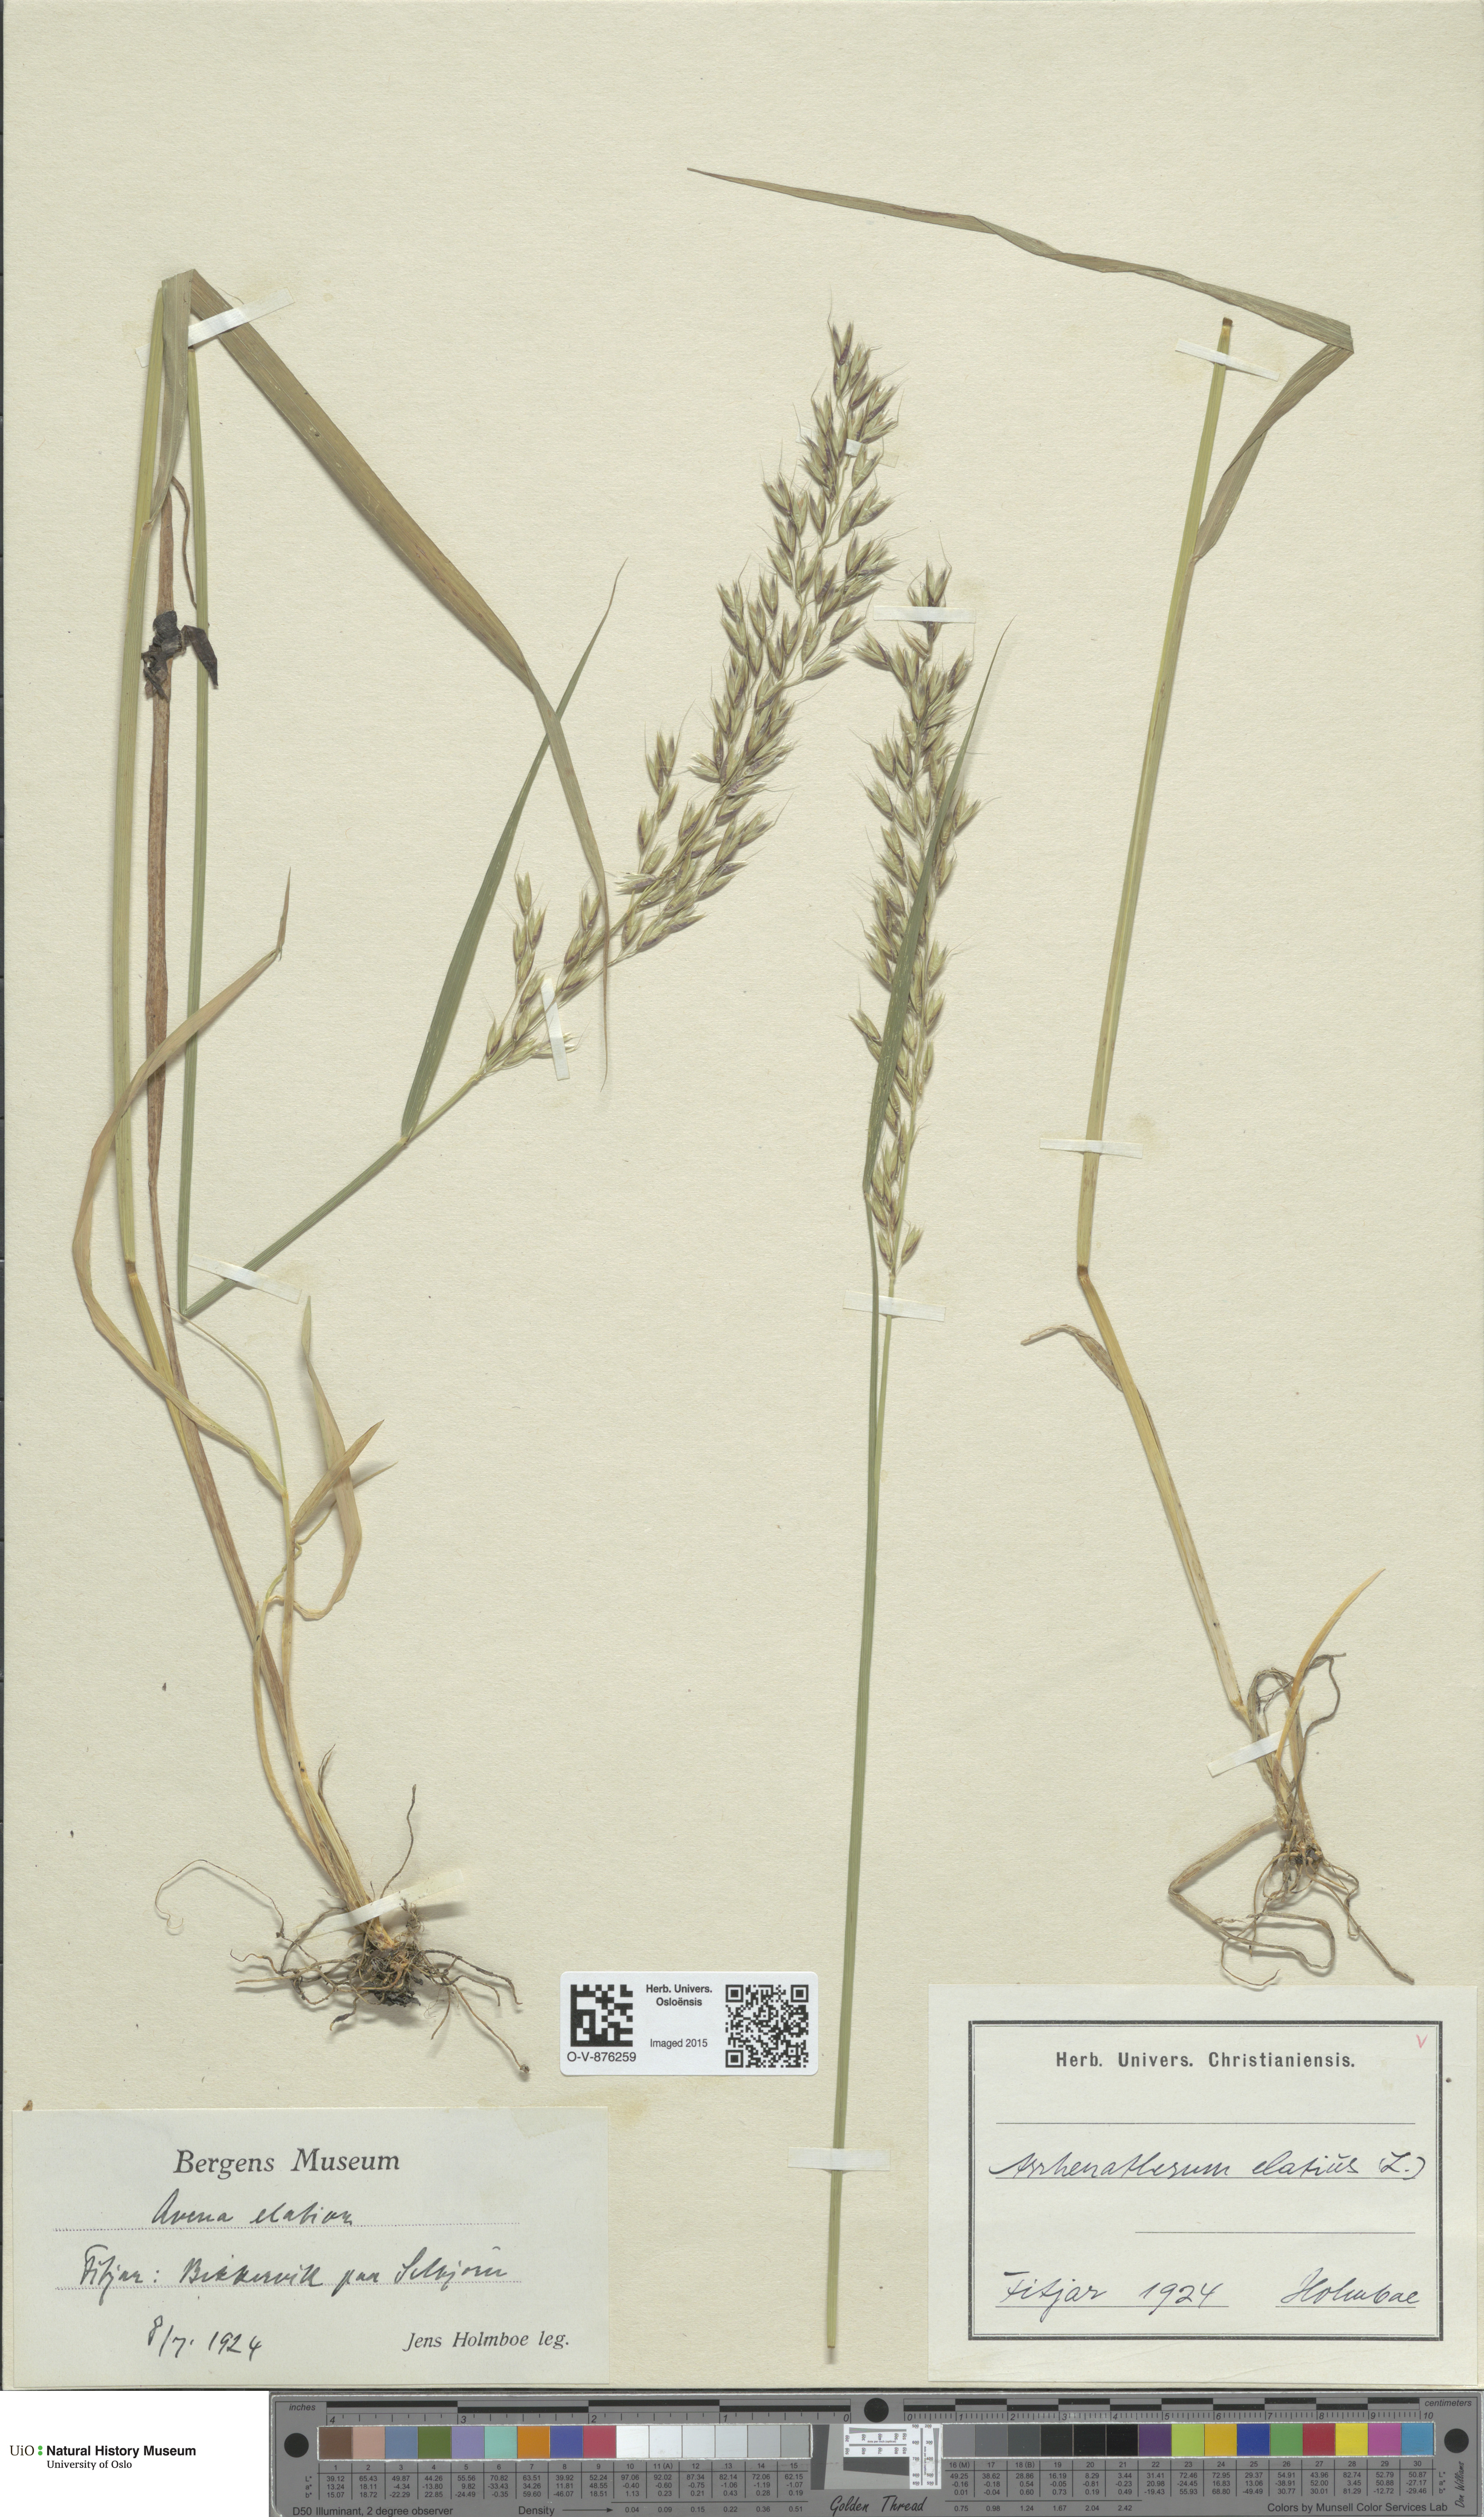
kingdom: Plantae
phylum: Tracheophyta
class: Liliopsida
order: Poales
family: Poaceae
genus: Arrhenatherum
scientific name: Arrhenatherum elatius
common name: Tall oatgrass
